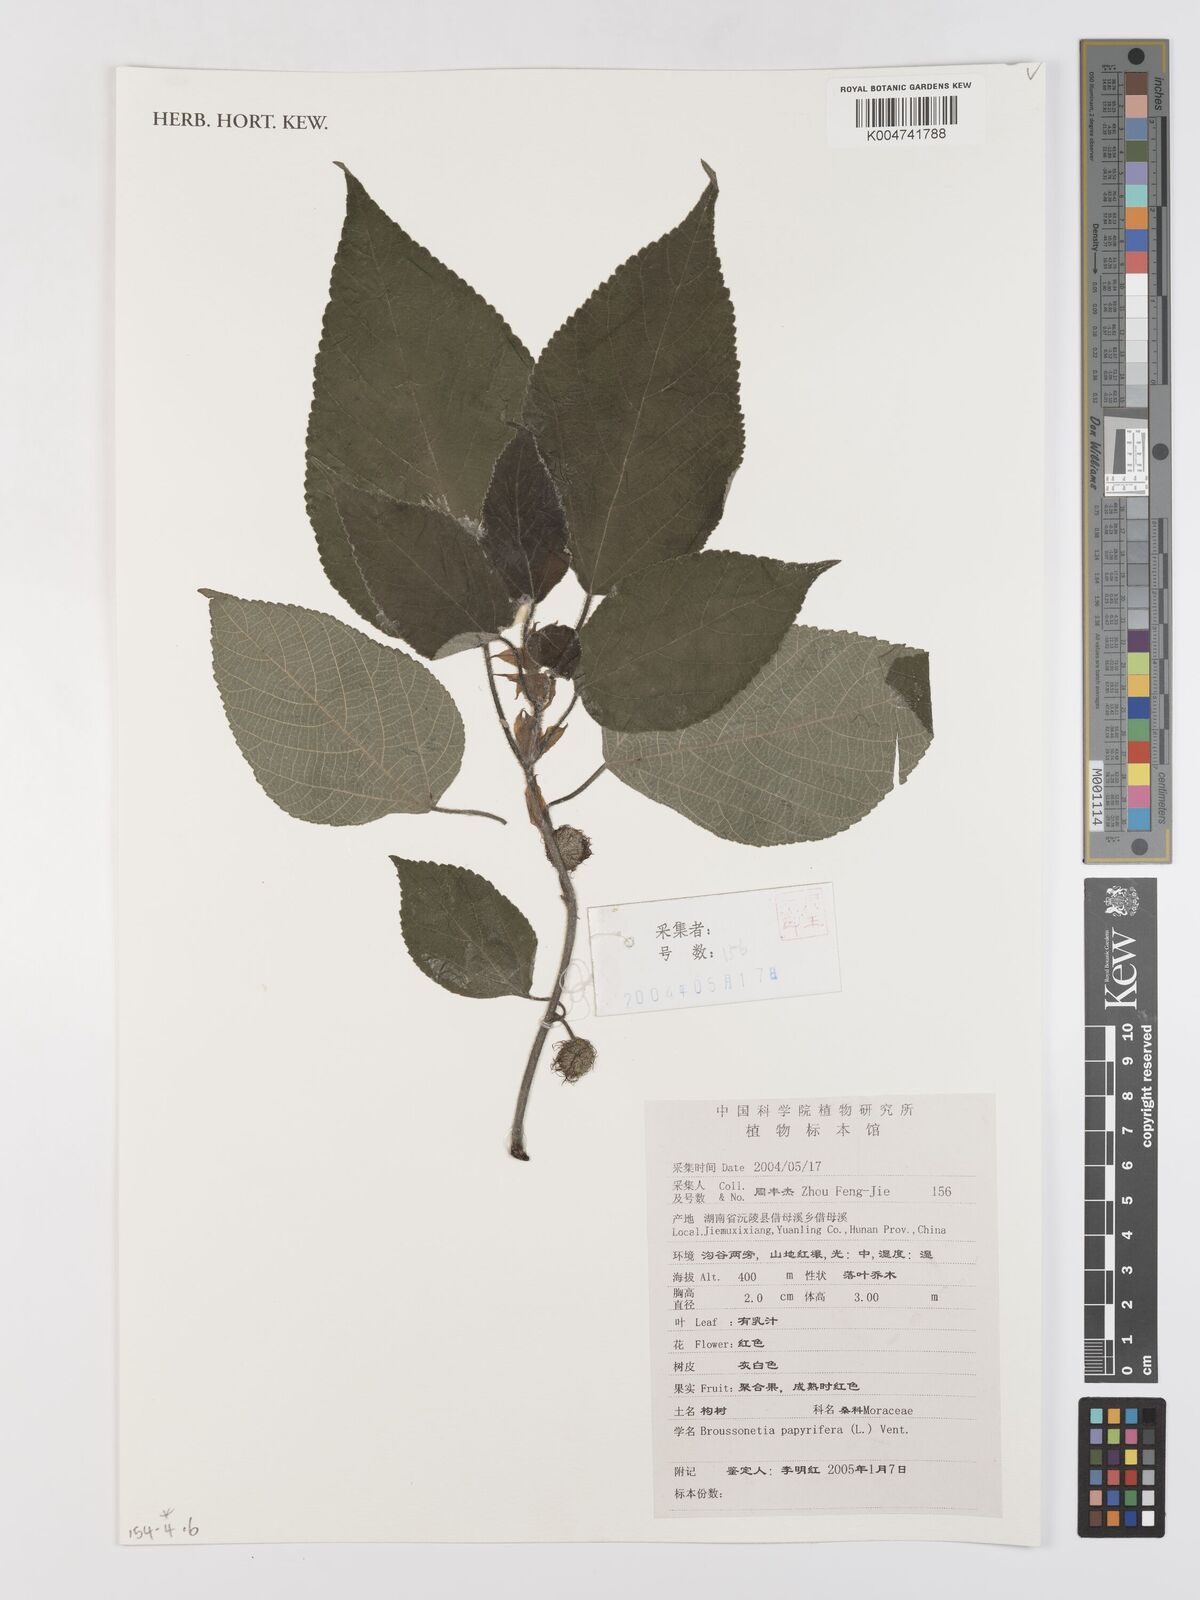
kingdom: Plantae
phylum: Tracheophyta
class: Magnoliopsida
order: Rosales
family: Moraceae
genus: Broussonetia
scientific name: Broussonetia papyrifera
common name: Paper mulberry
